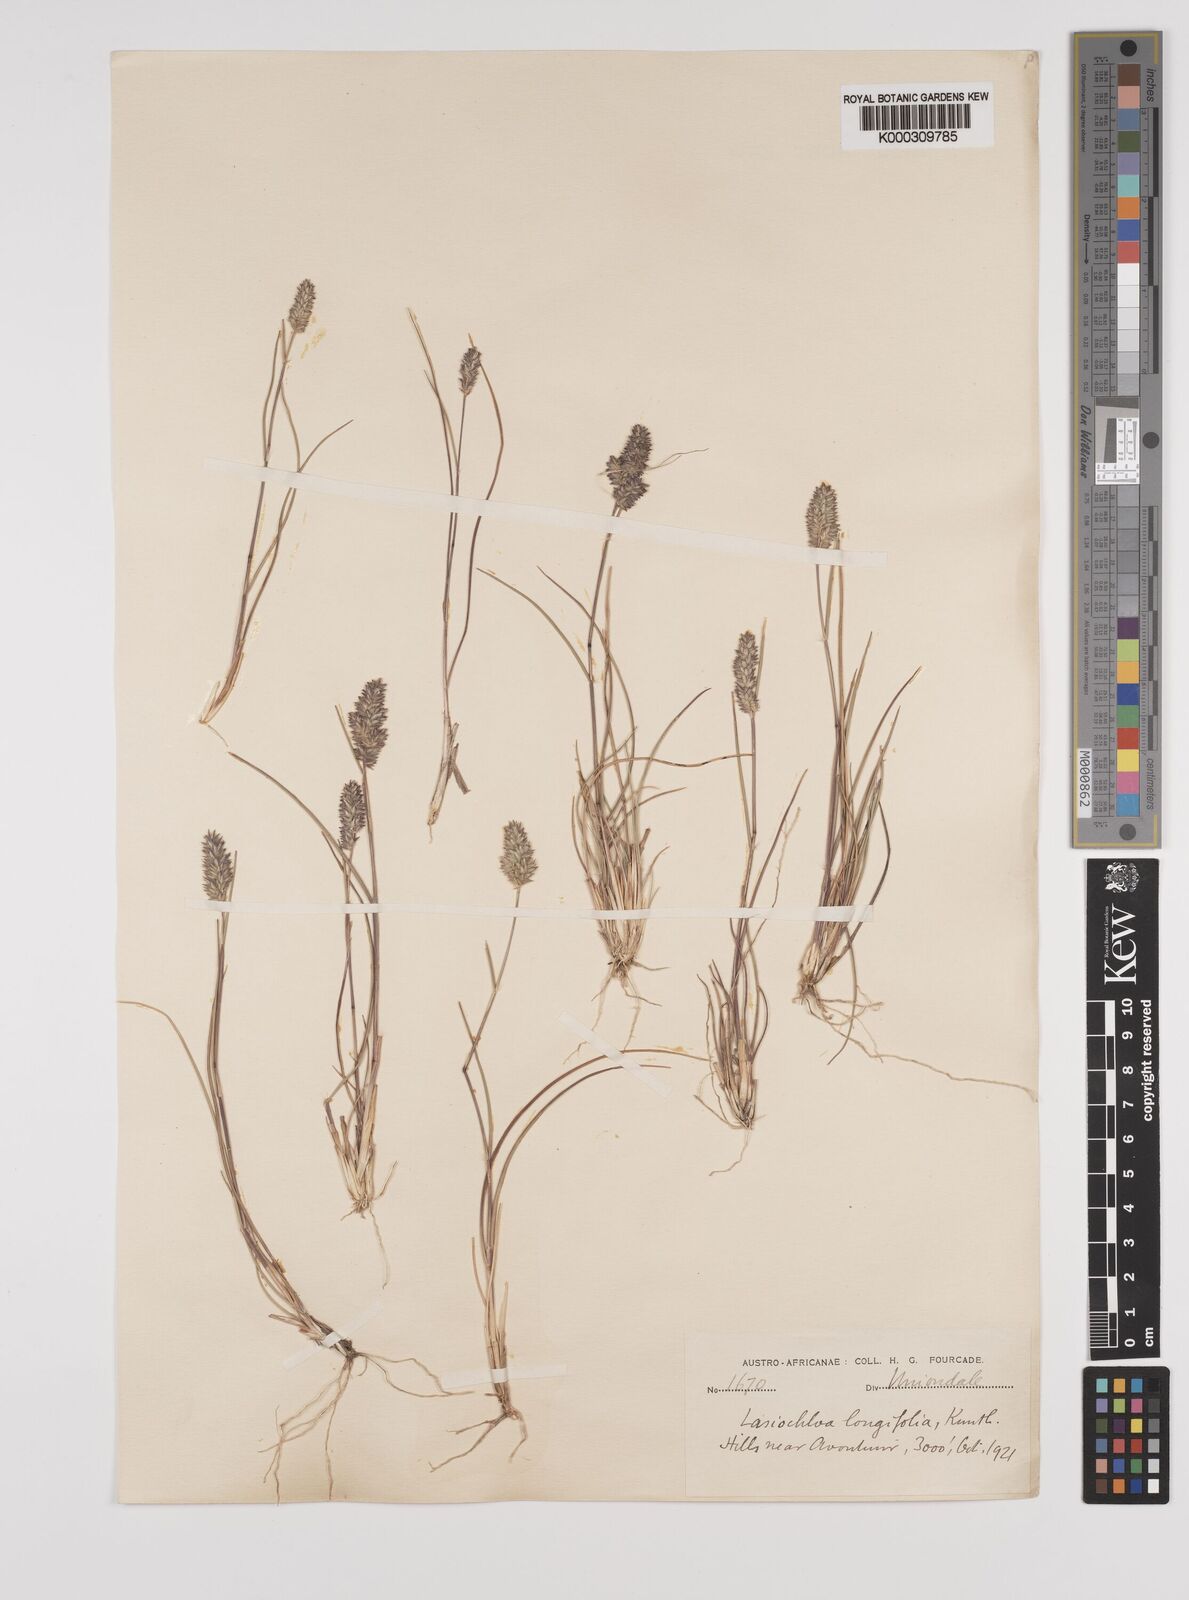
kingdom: Plantae
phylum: Tracheophyta
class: Liliopsida
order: Poales
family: Poaceae
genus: Tribolium
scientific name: Tribolium hispidum
